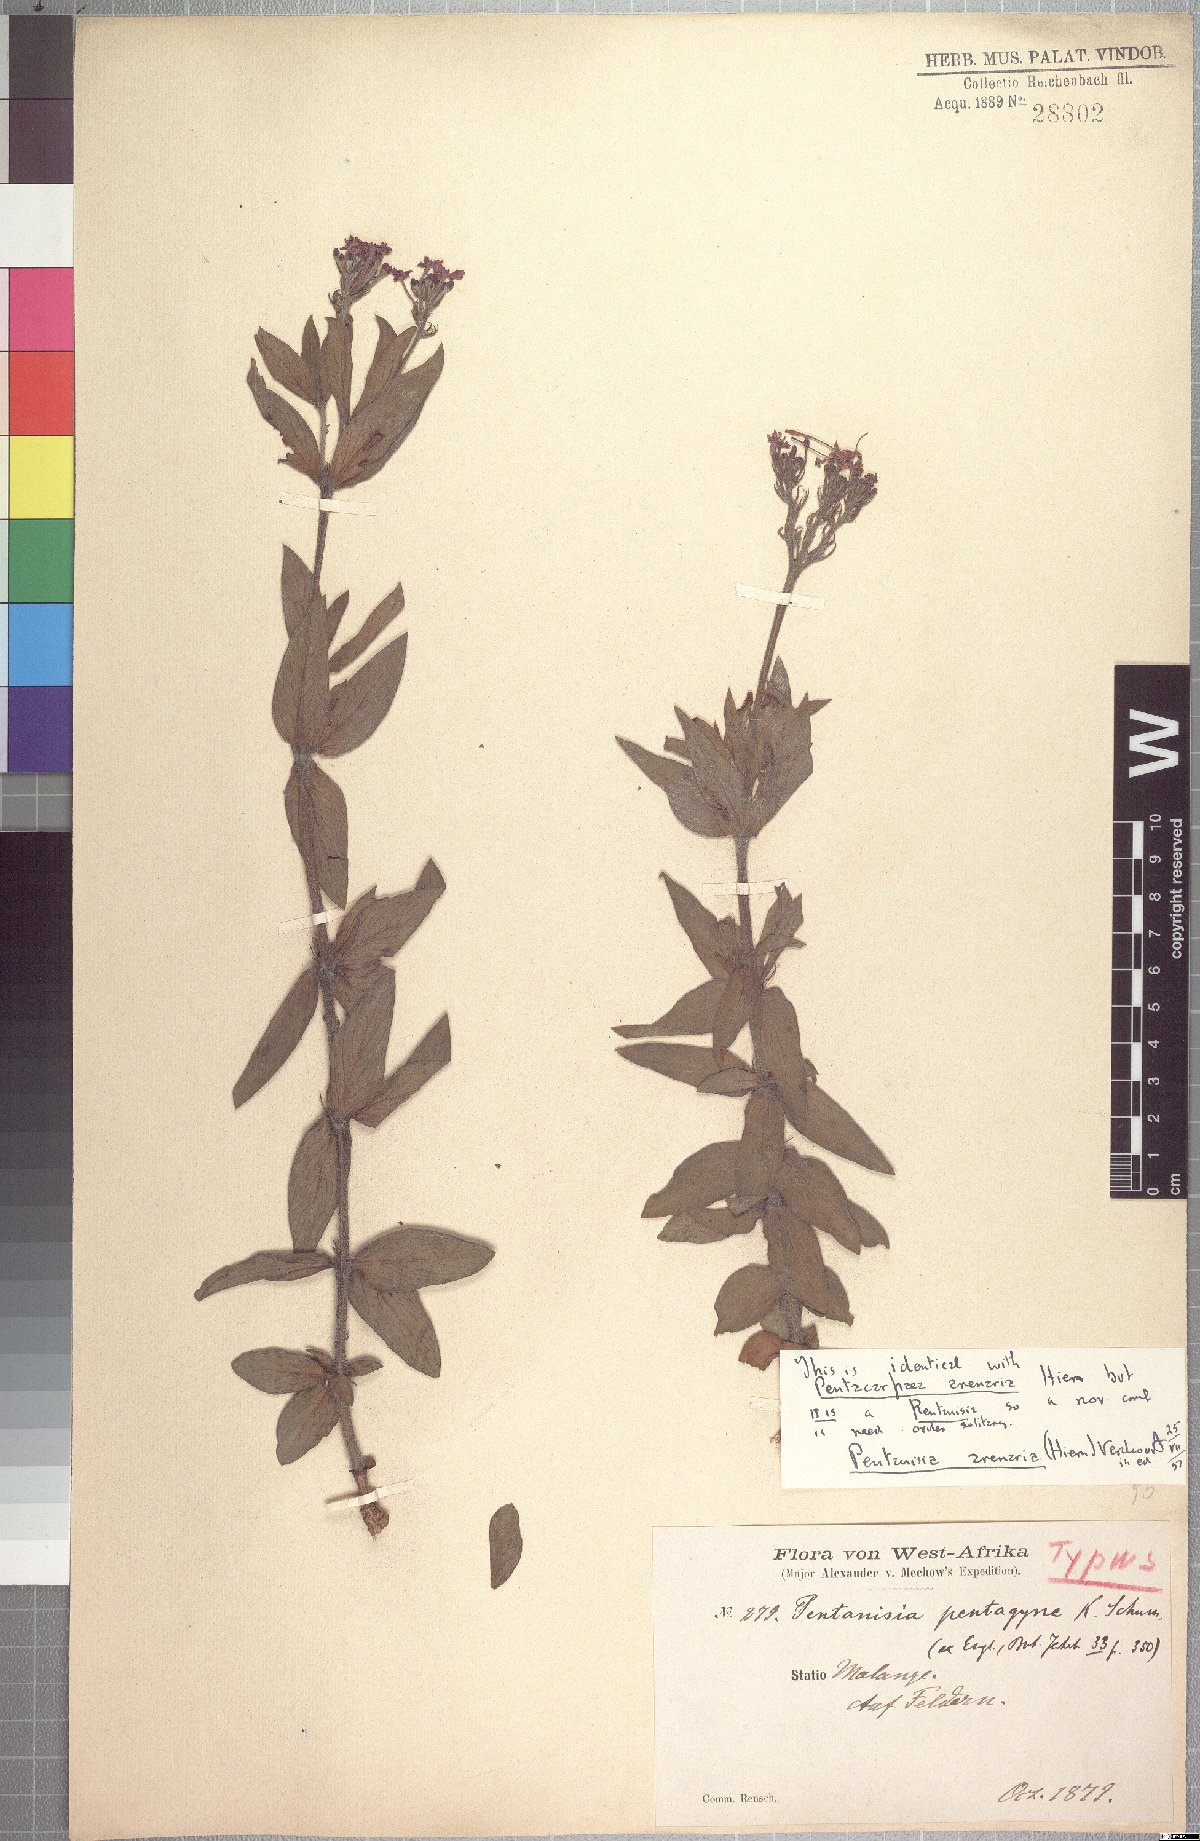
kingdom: Plantae
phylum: Tracheophyta
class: Magnoliopsida
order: Gentianales
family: Rubiaceae
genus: Pentanisia
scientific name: Pentanisia arenaria
